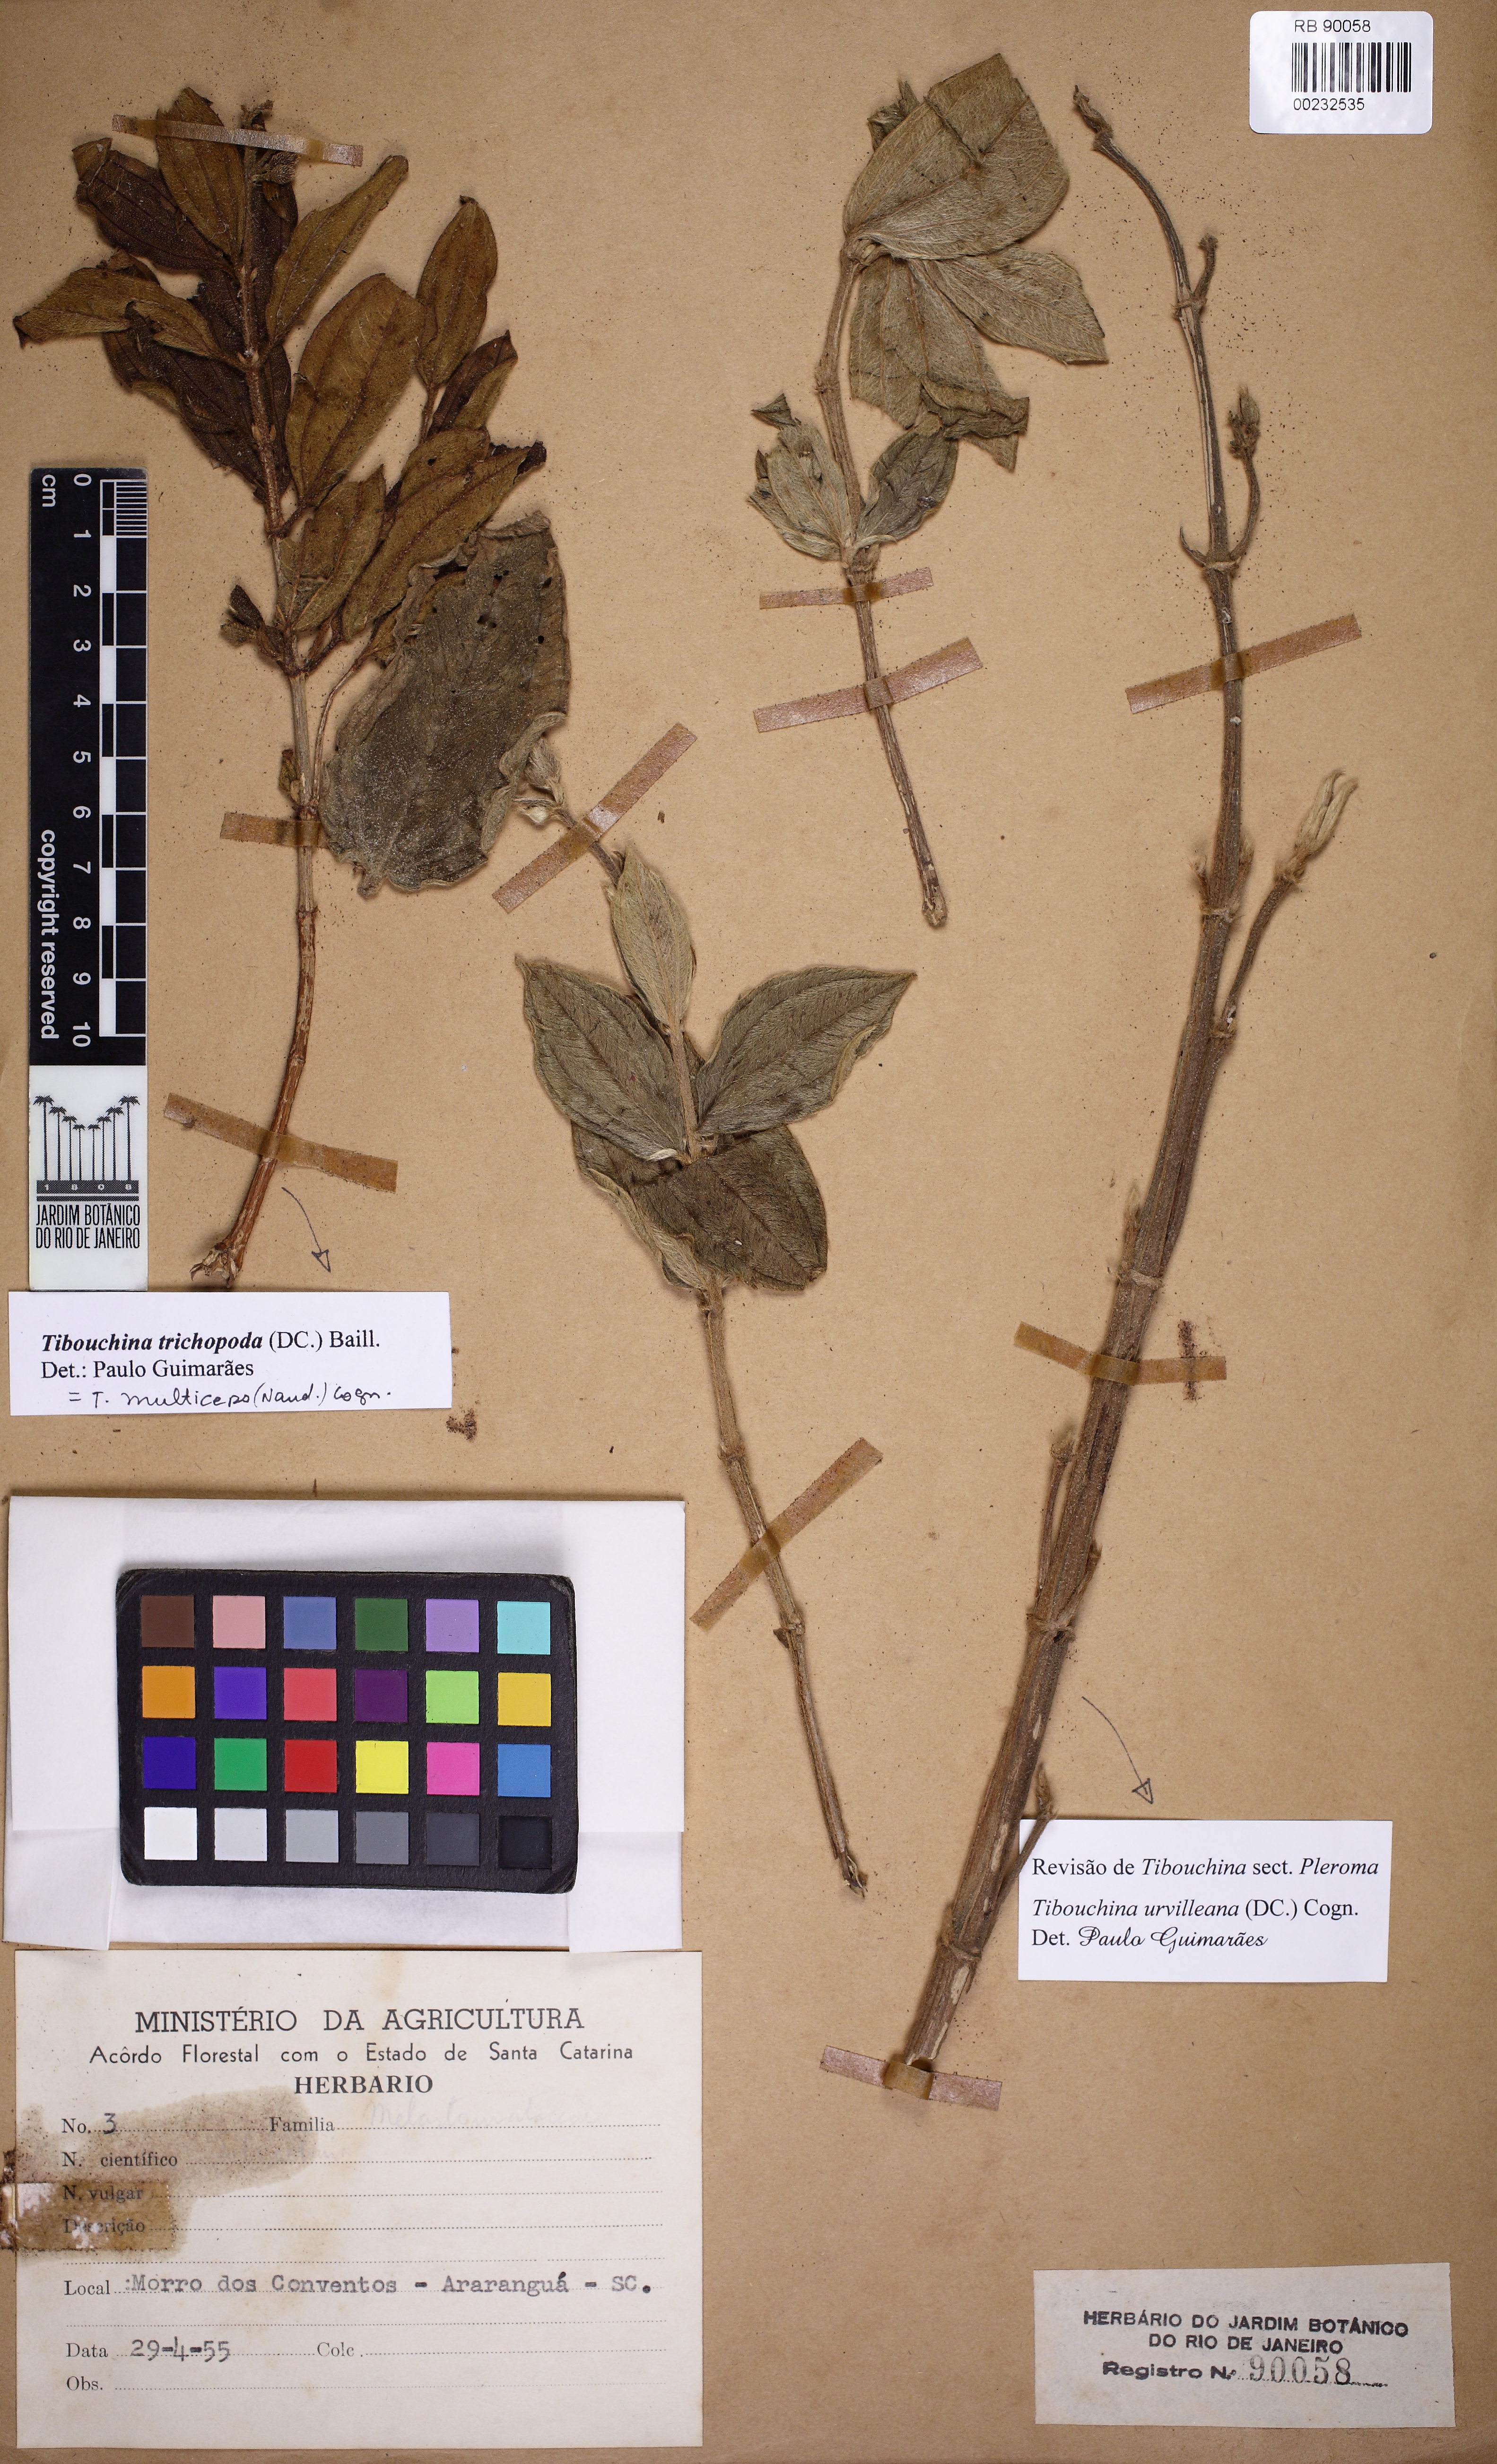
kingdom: Plantae
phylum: Tracheophyta
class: Magnoliopsida
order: Myrtales
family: Melastomataceae
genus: Pleroma
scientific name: Pleroma urvilleanum
